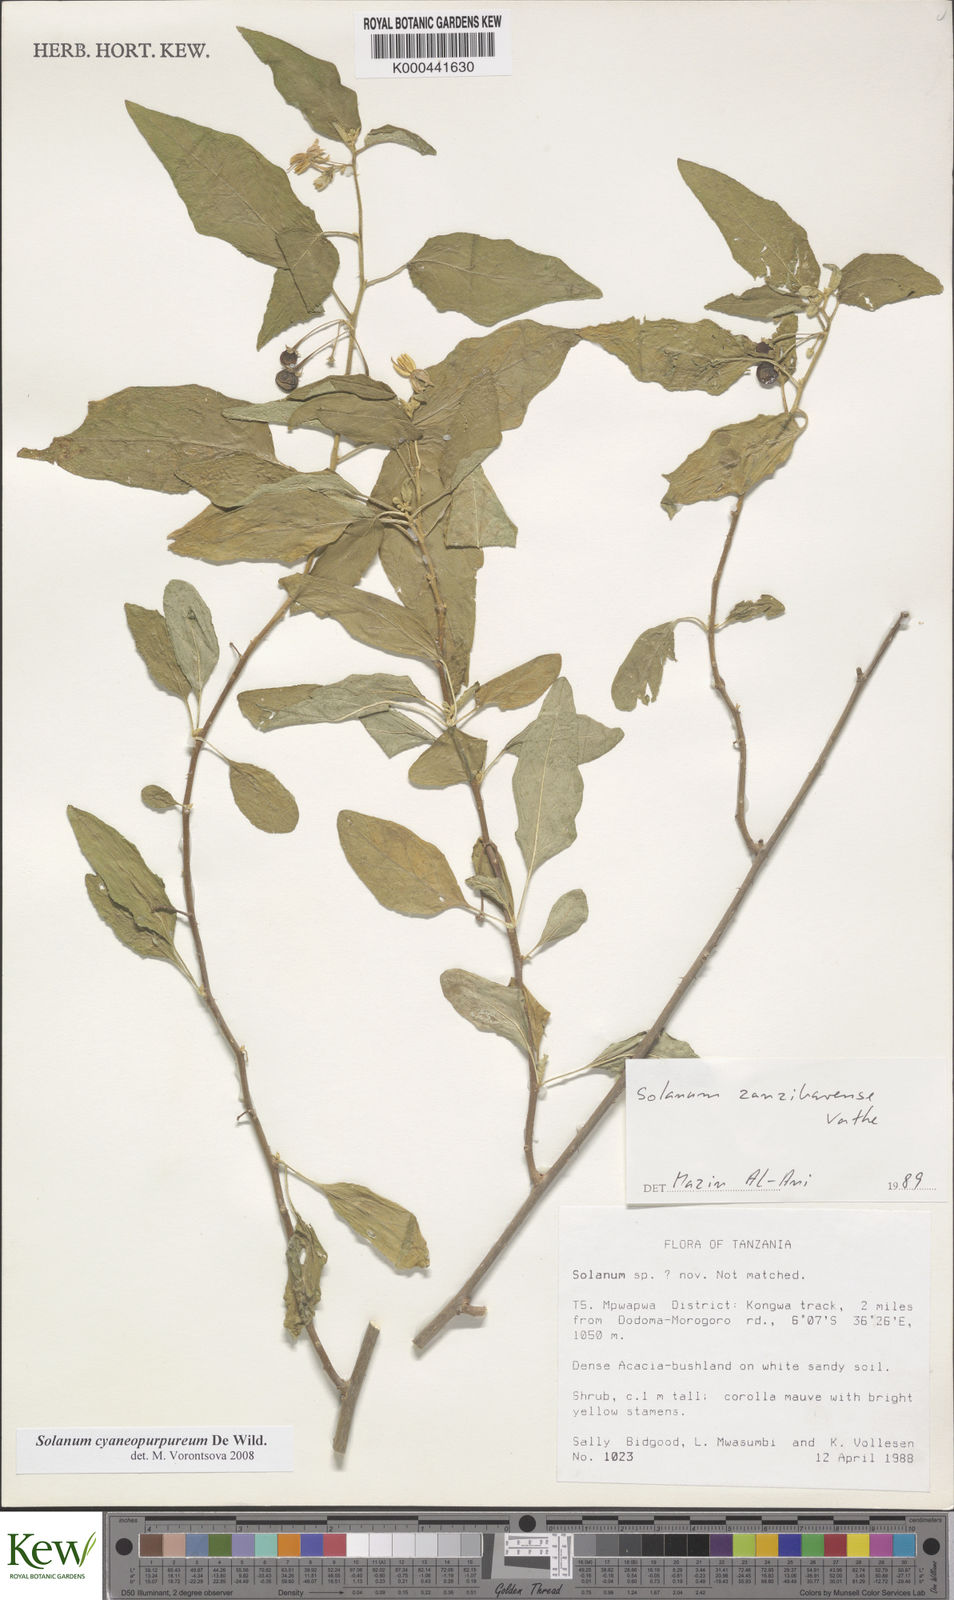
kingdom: Plantae
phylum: Tracheophyta
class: Magnoliopsida
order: Solanales
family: Solanaceae
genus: Solanum
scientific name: Solanum cyaneopurpureum
